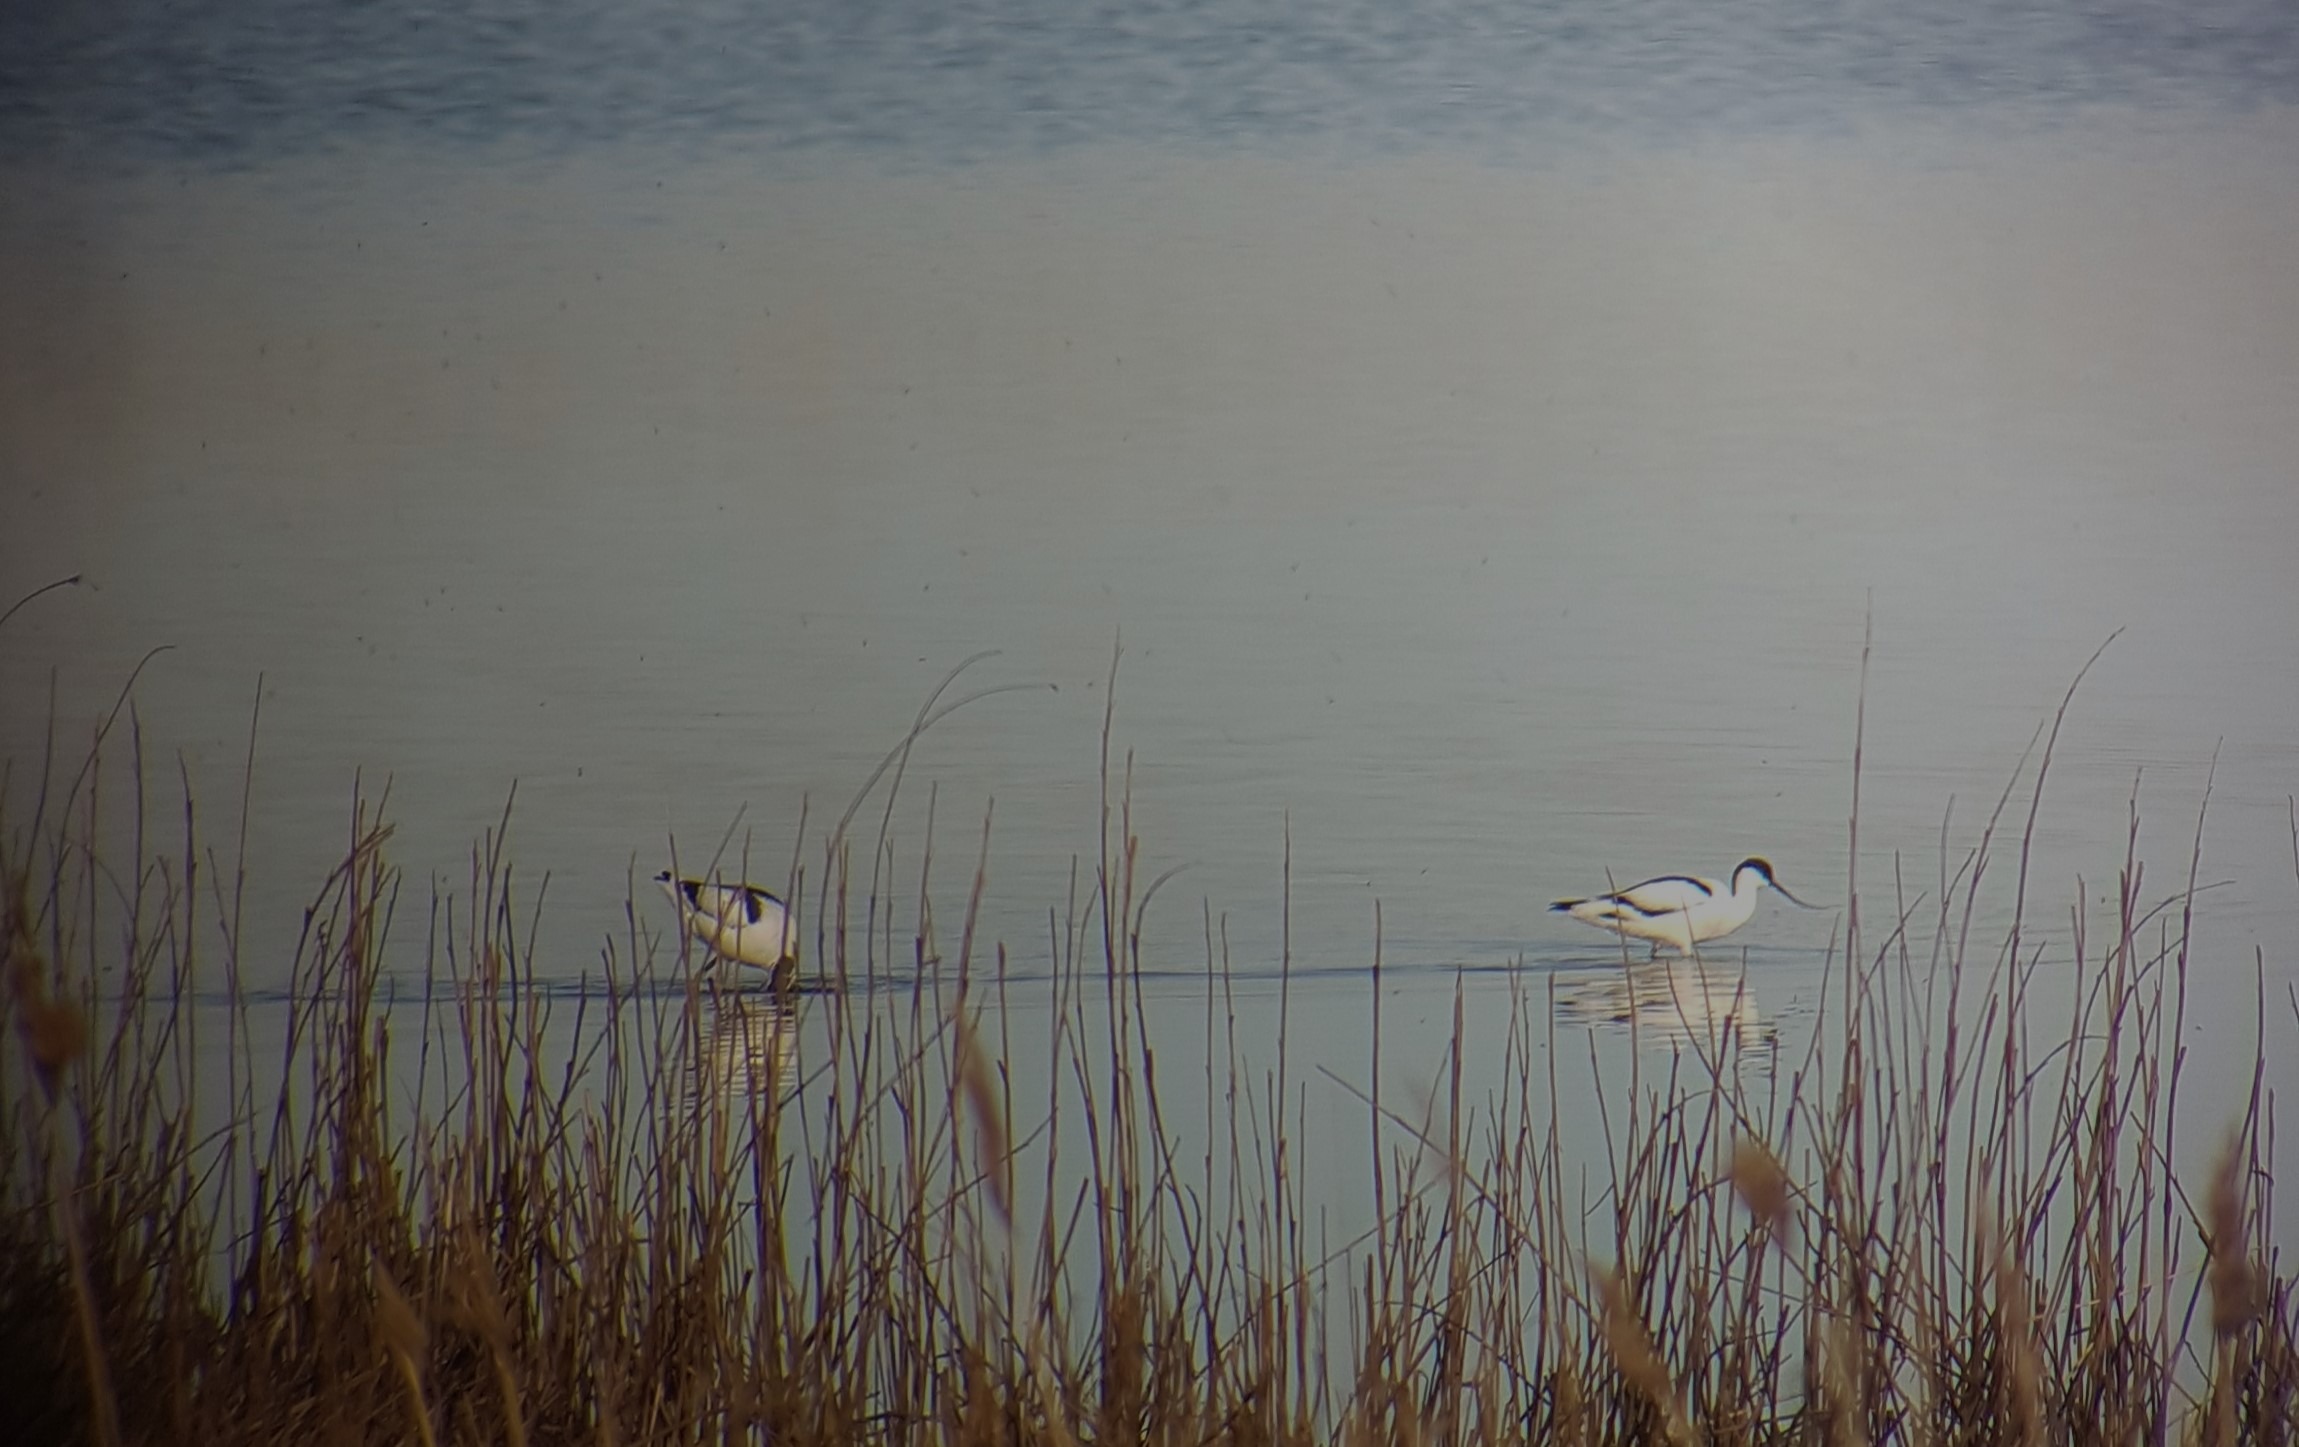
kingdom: Animalia
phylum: Chordata
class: Aves
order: Charadriiformes
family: Recurvirostridae
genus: Recurvirostra
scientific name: Recurvirostra avosetta
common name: Klyde
